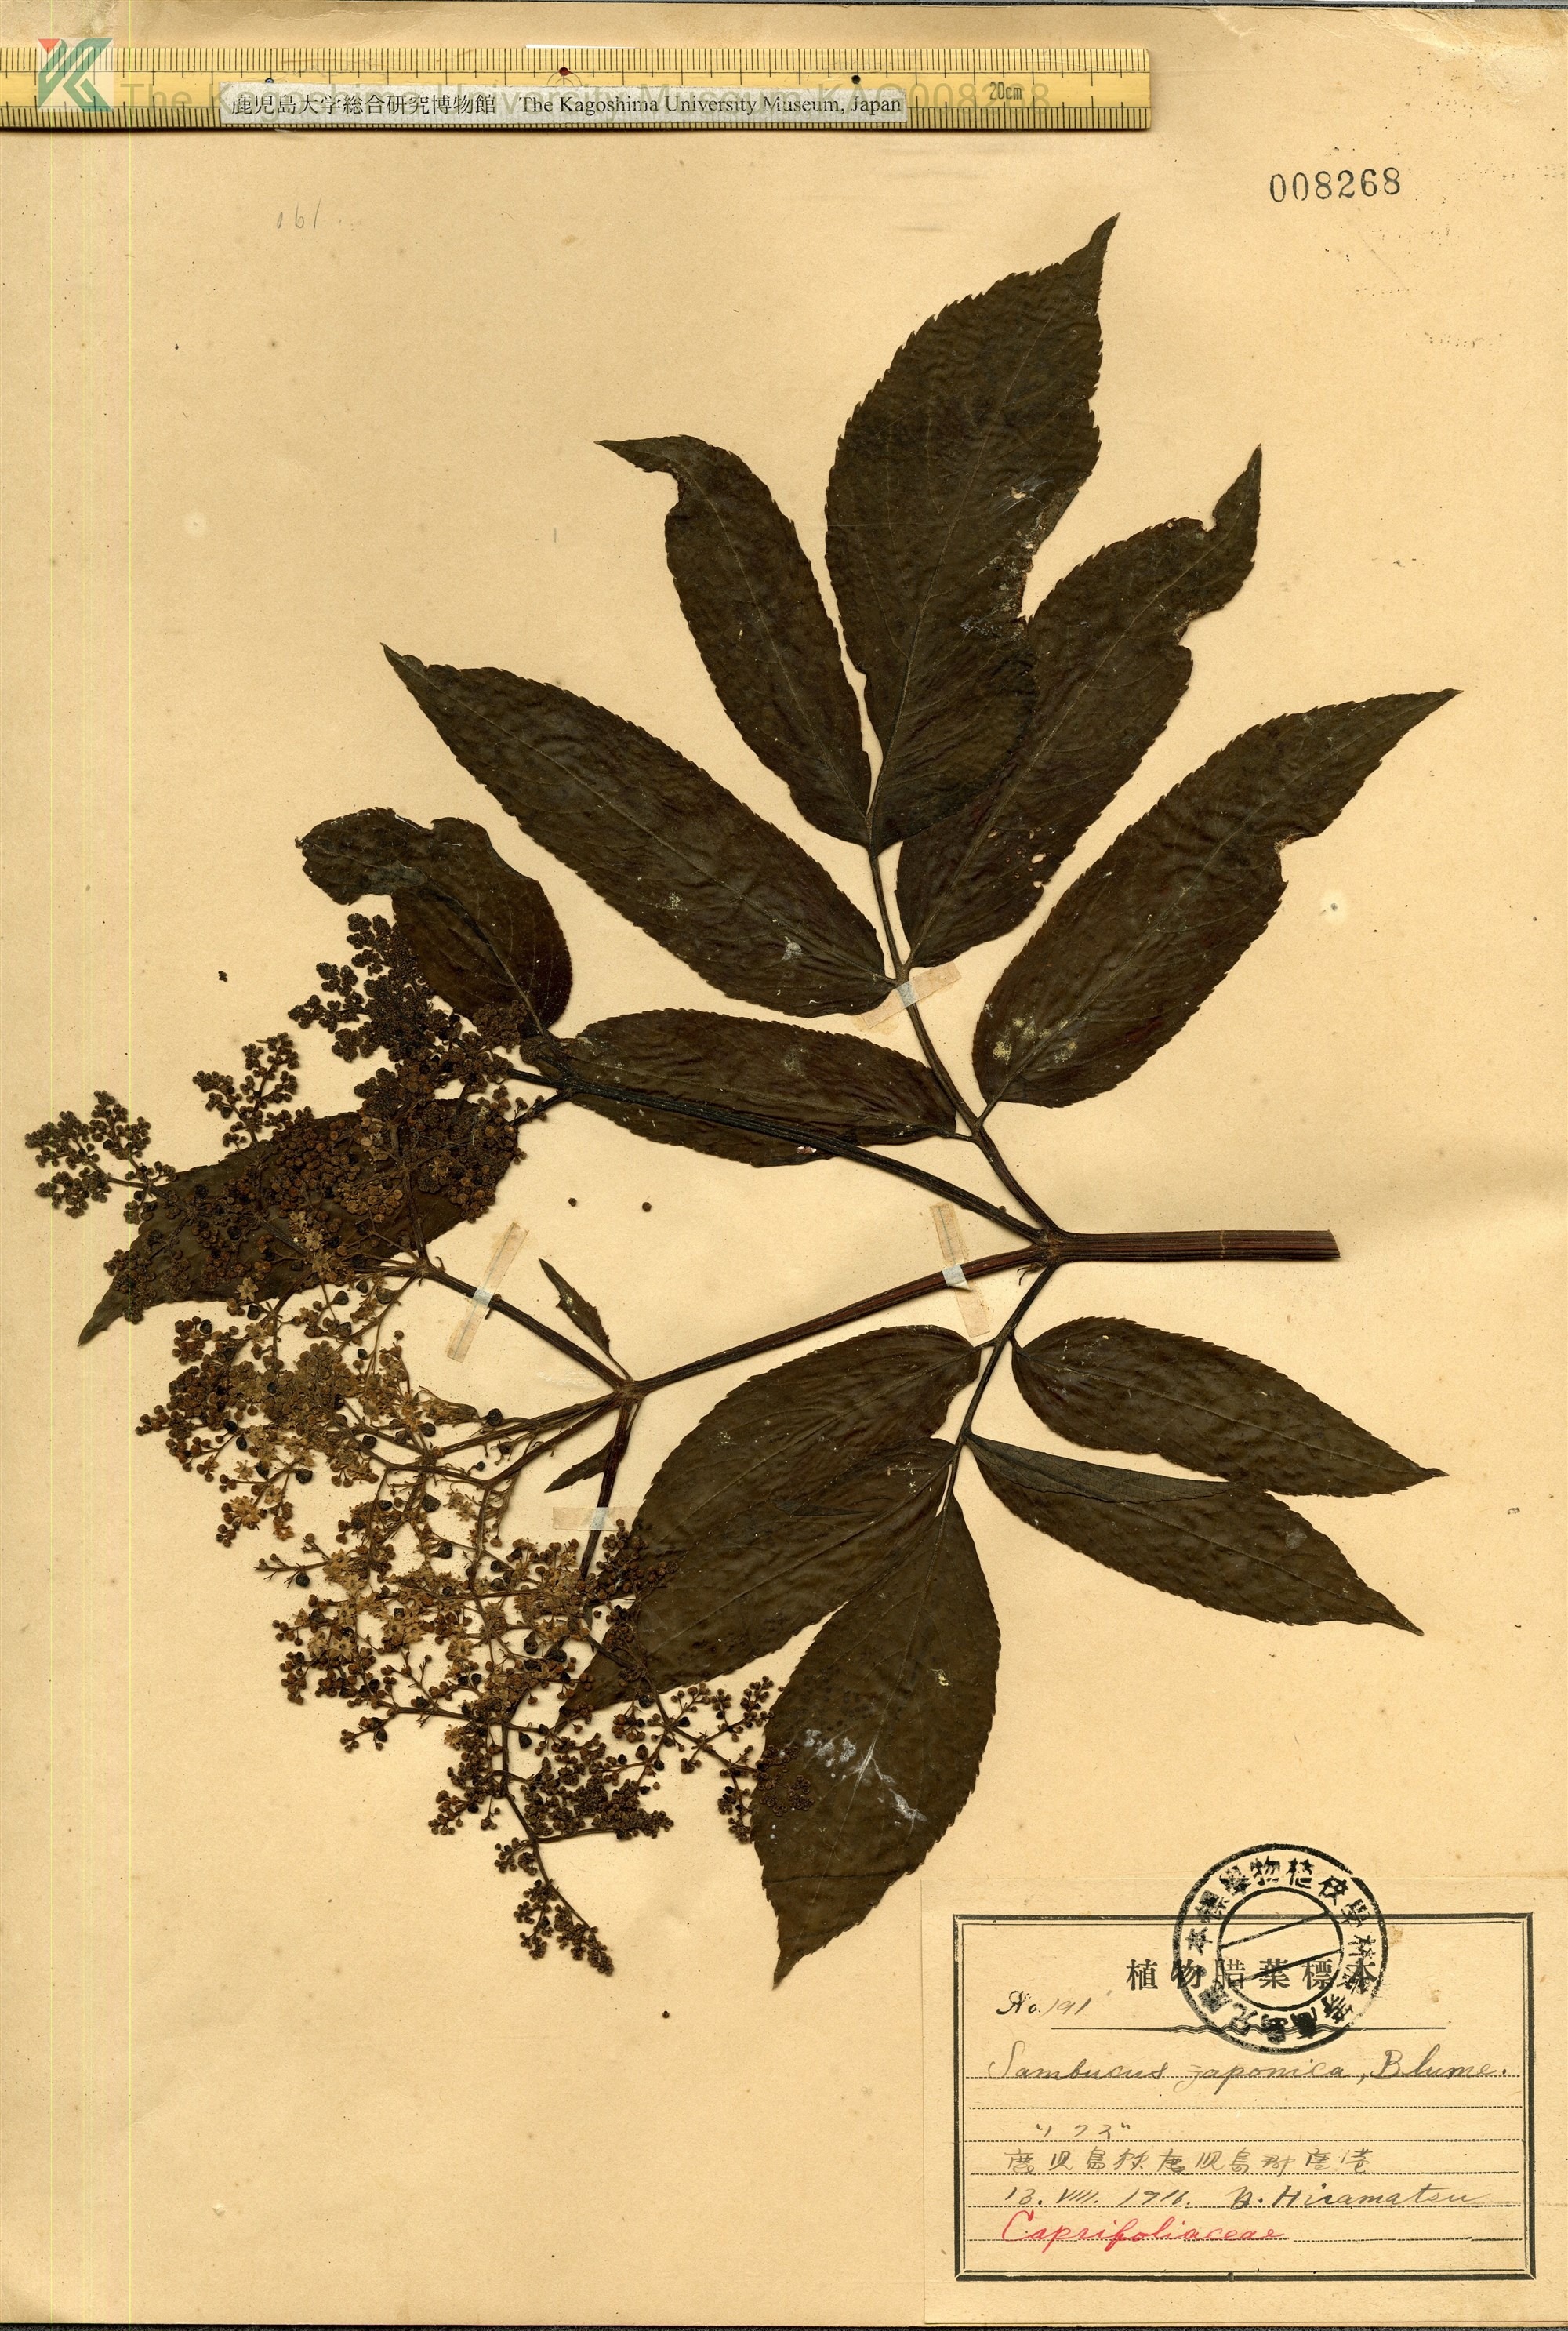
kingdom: Plantae
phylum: Tracheophyta
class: Magnoliopsida
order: Dipsacales
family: Viburnaceae
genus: Sambucus
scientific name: Sambucus javanica
